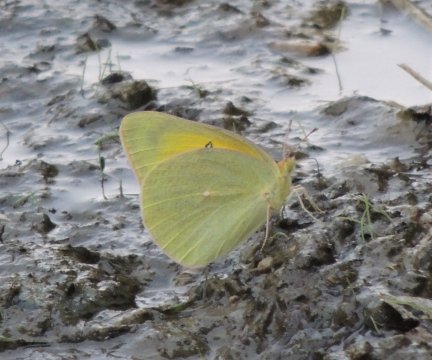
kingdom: Animalia
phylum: Arthropoda
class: Insecta
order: Lepidoptera
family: Pieridae
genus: Colias
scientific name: Colias christina
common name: Christina Sulphur
